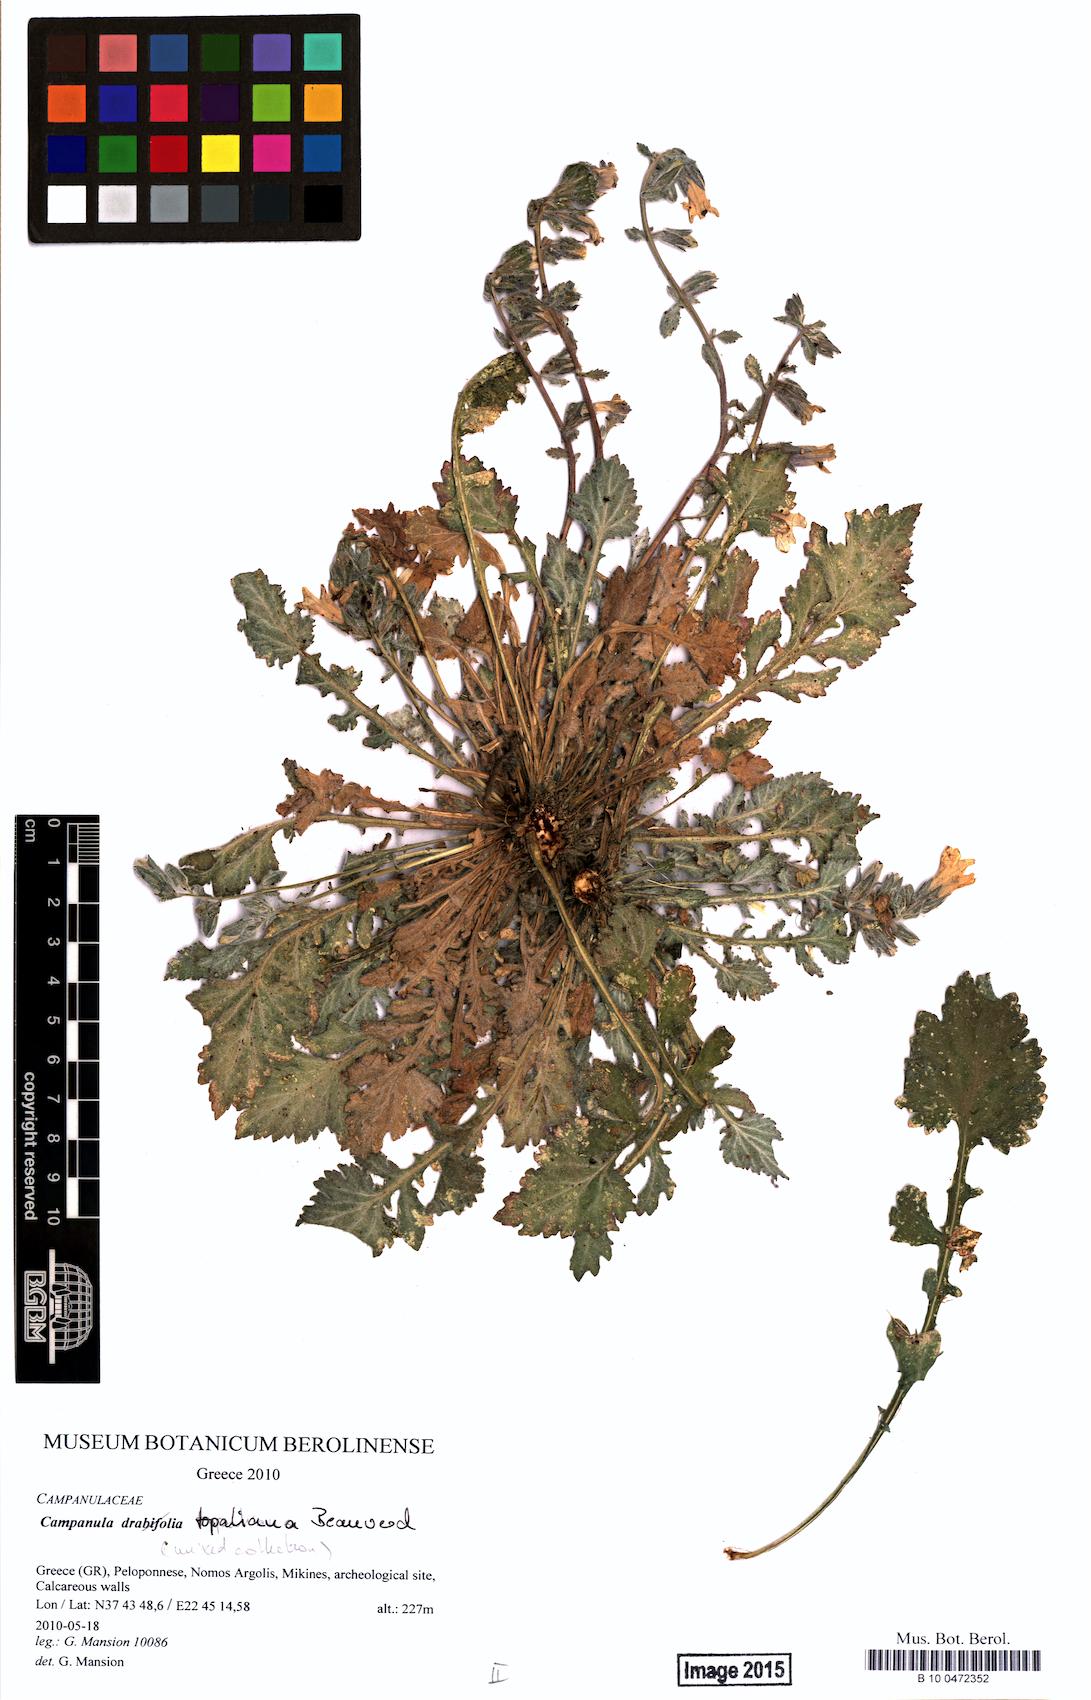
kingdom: Plantae
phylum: Tracheophyta
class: Magnoliopsida
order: Asterales
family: Campanulaceae
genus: Campanula
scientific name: Campanula topaliana
